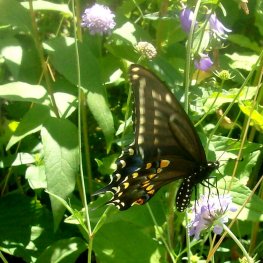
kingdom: Animalia
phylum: Arthropoda
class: Insecta
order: Lepidoptera
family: Papilionidae
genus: Papilio
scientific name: Papilio polyxenes
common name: Black Swallowtail
